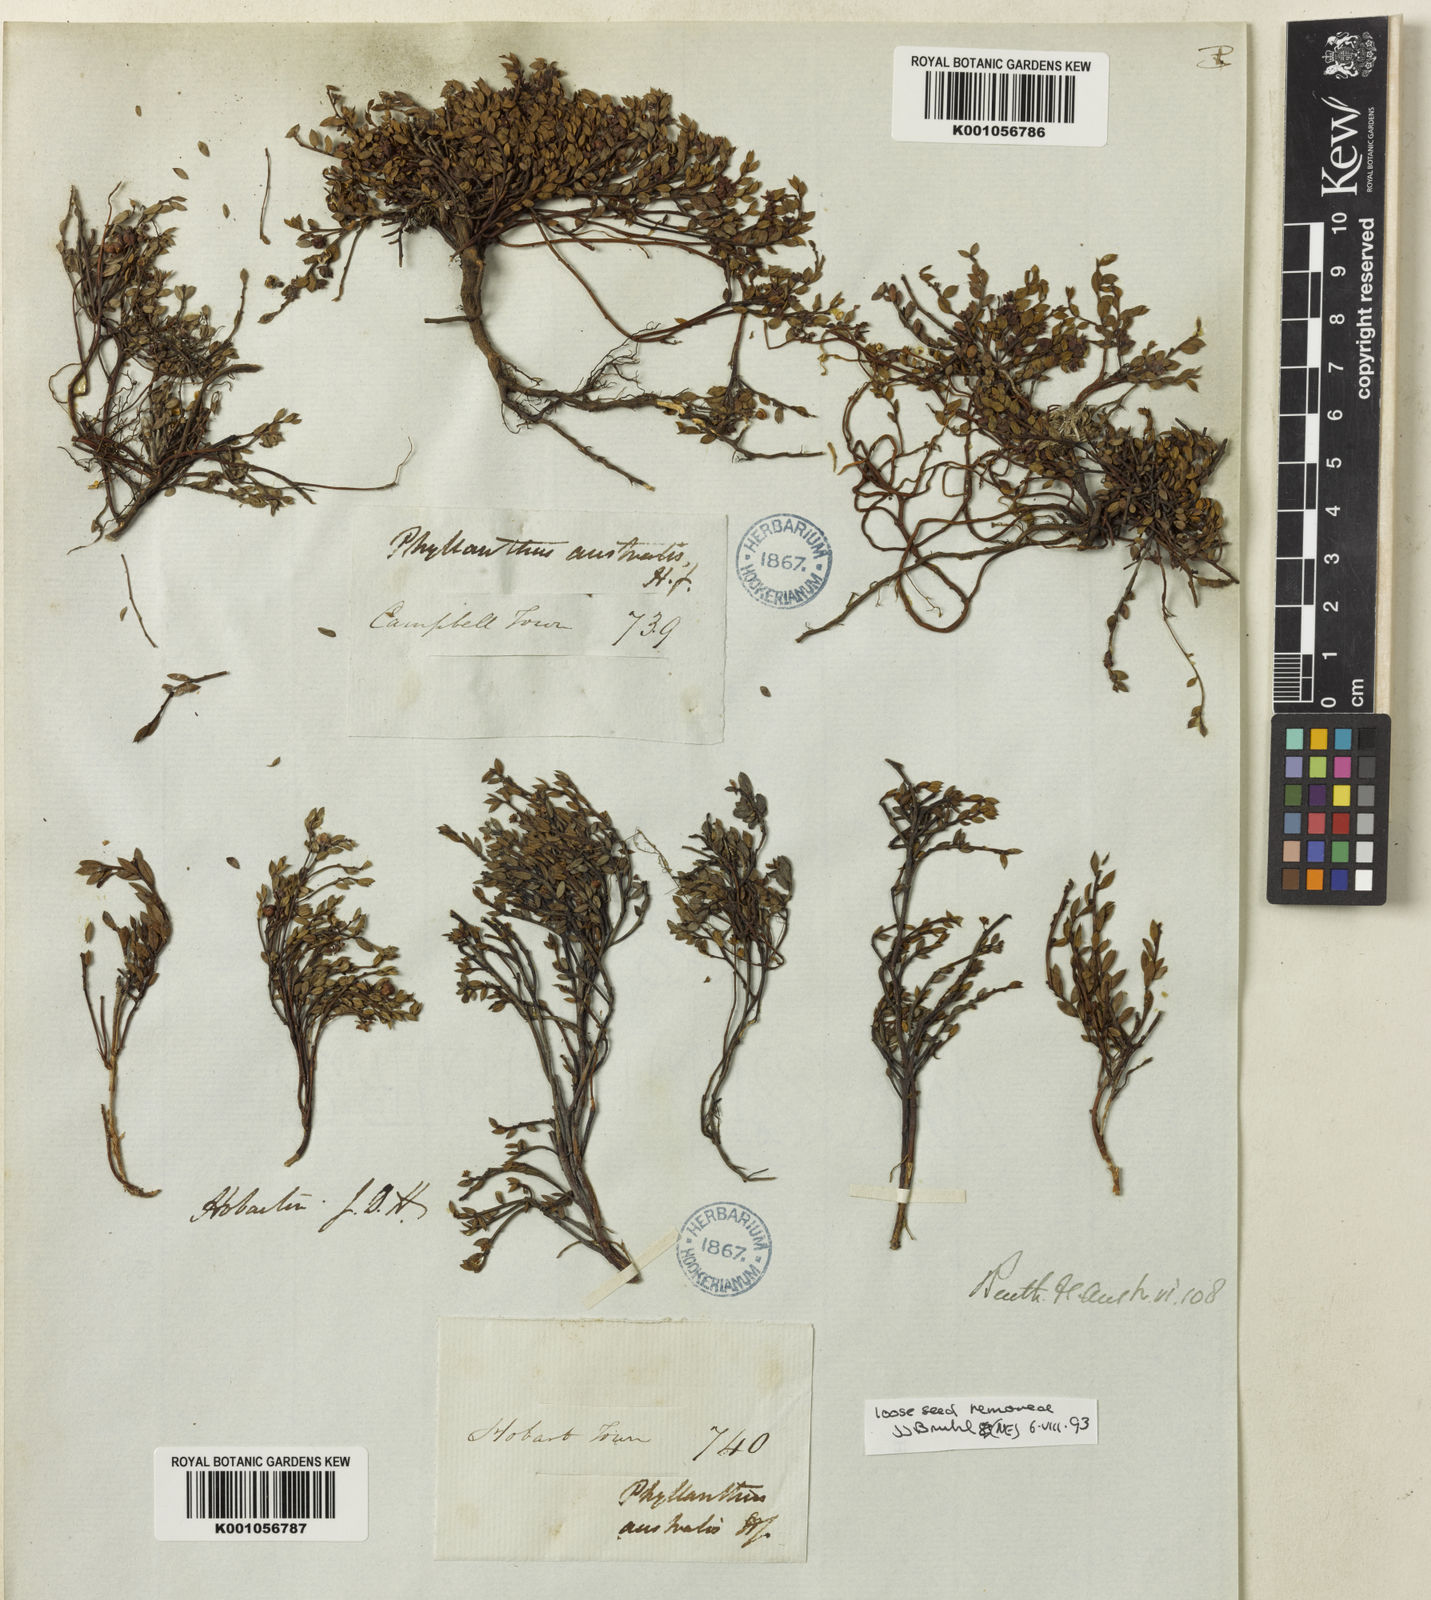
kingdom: Plantae
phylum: Tracheophyta
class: Magnoliopsida
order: Malpighiales
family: Phyllanthaceae
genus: Phyllanthus
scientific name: Phyllanthus australis
